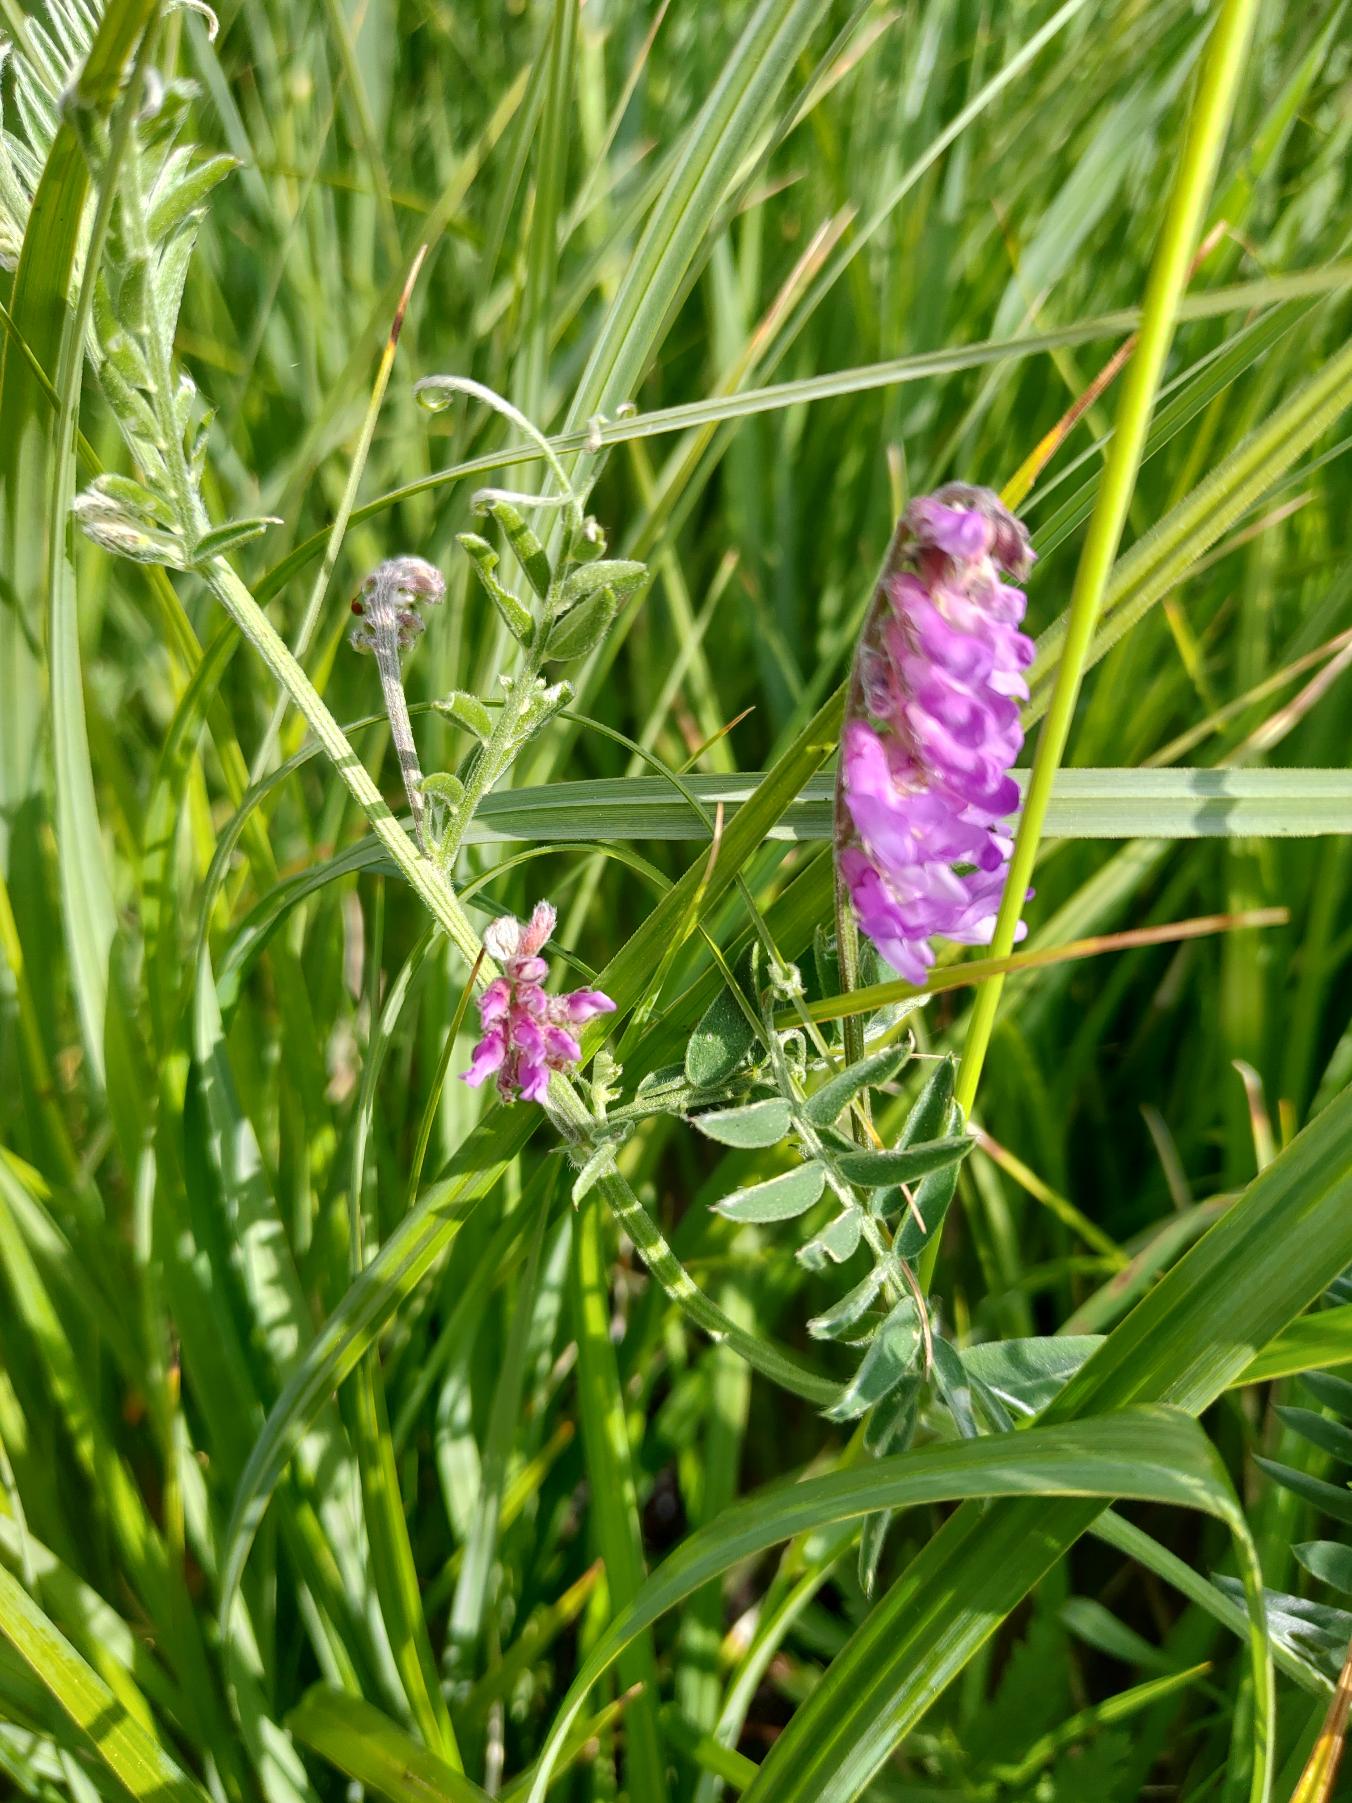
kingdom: Plantae
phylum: Tracheophyta
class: Magnoliopsida
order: Fabales
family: Fabaceae
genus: Vicia
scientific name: Vicia cracca
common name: Muse-vikke
